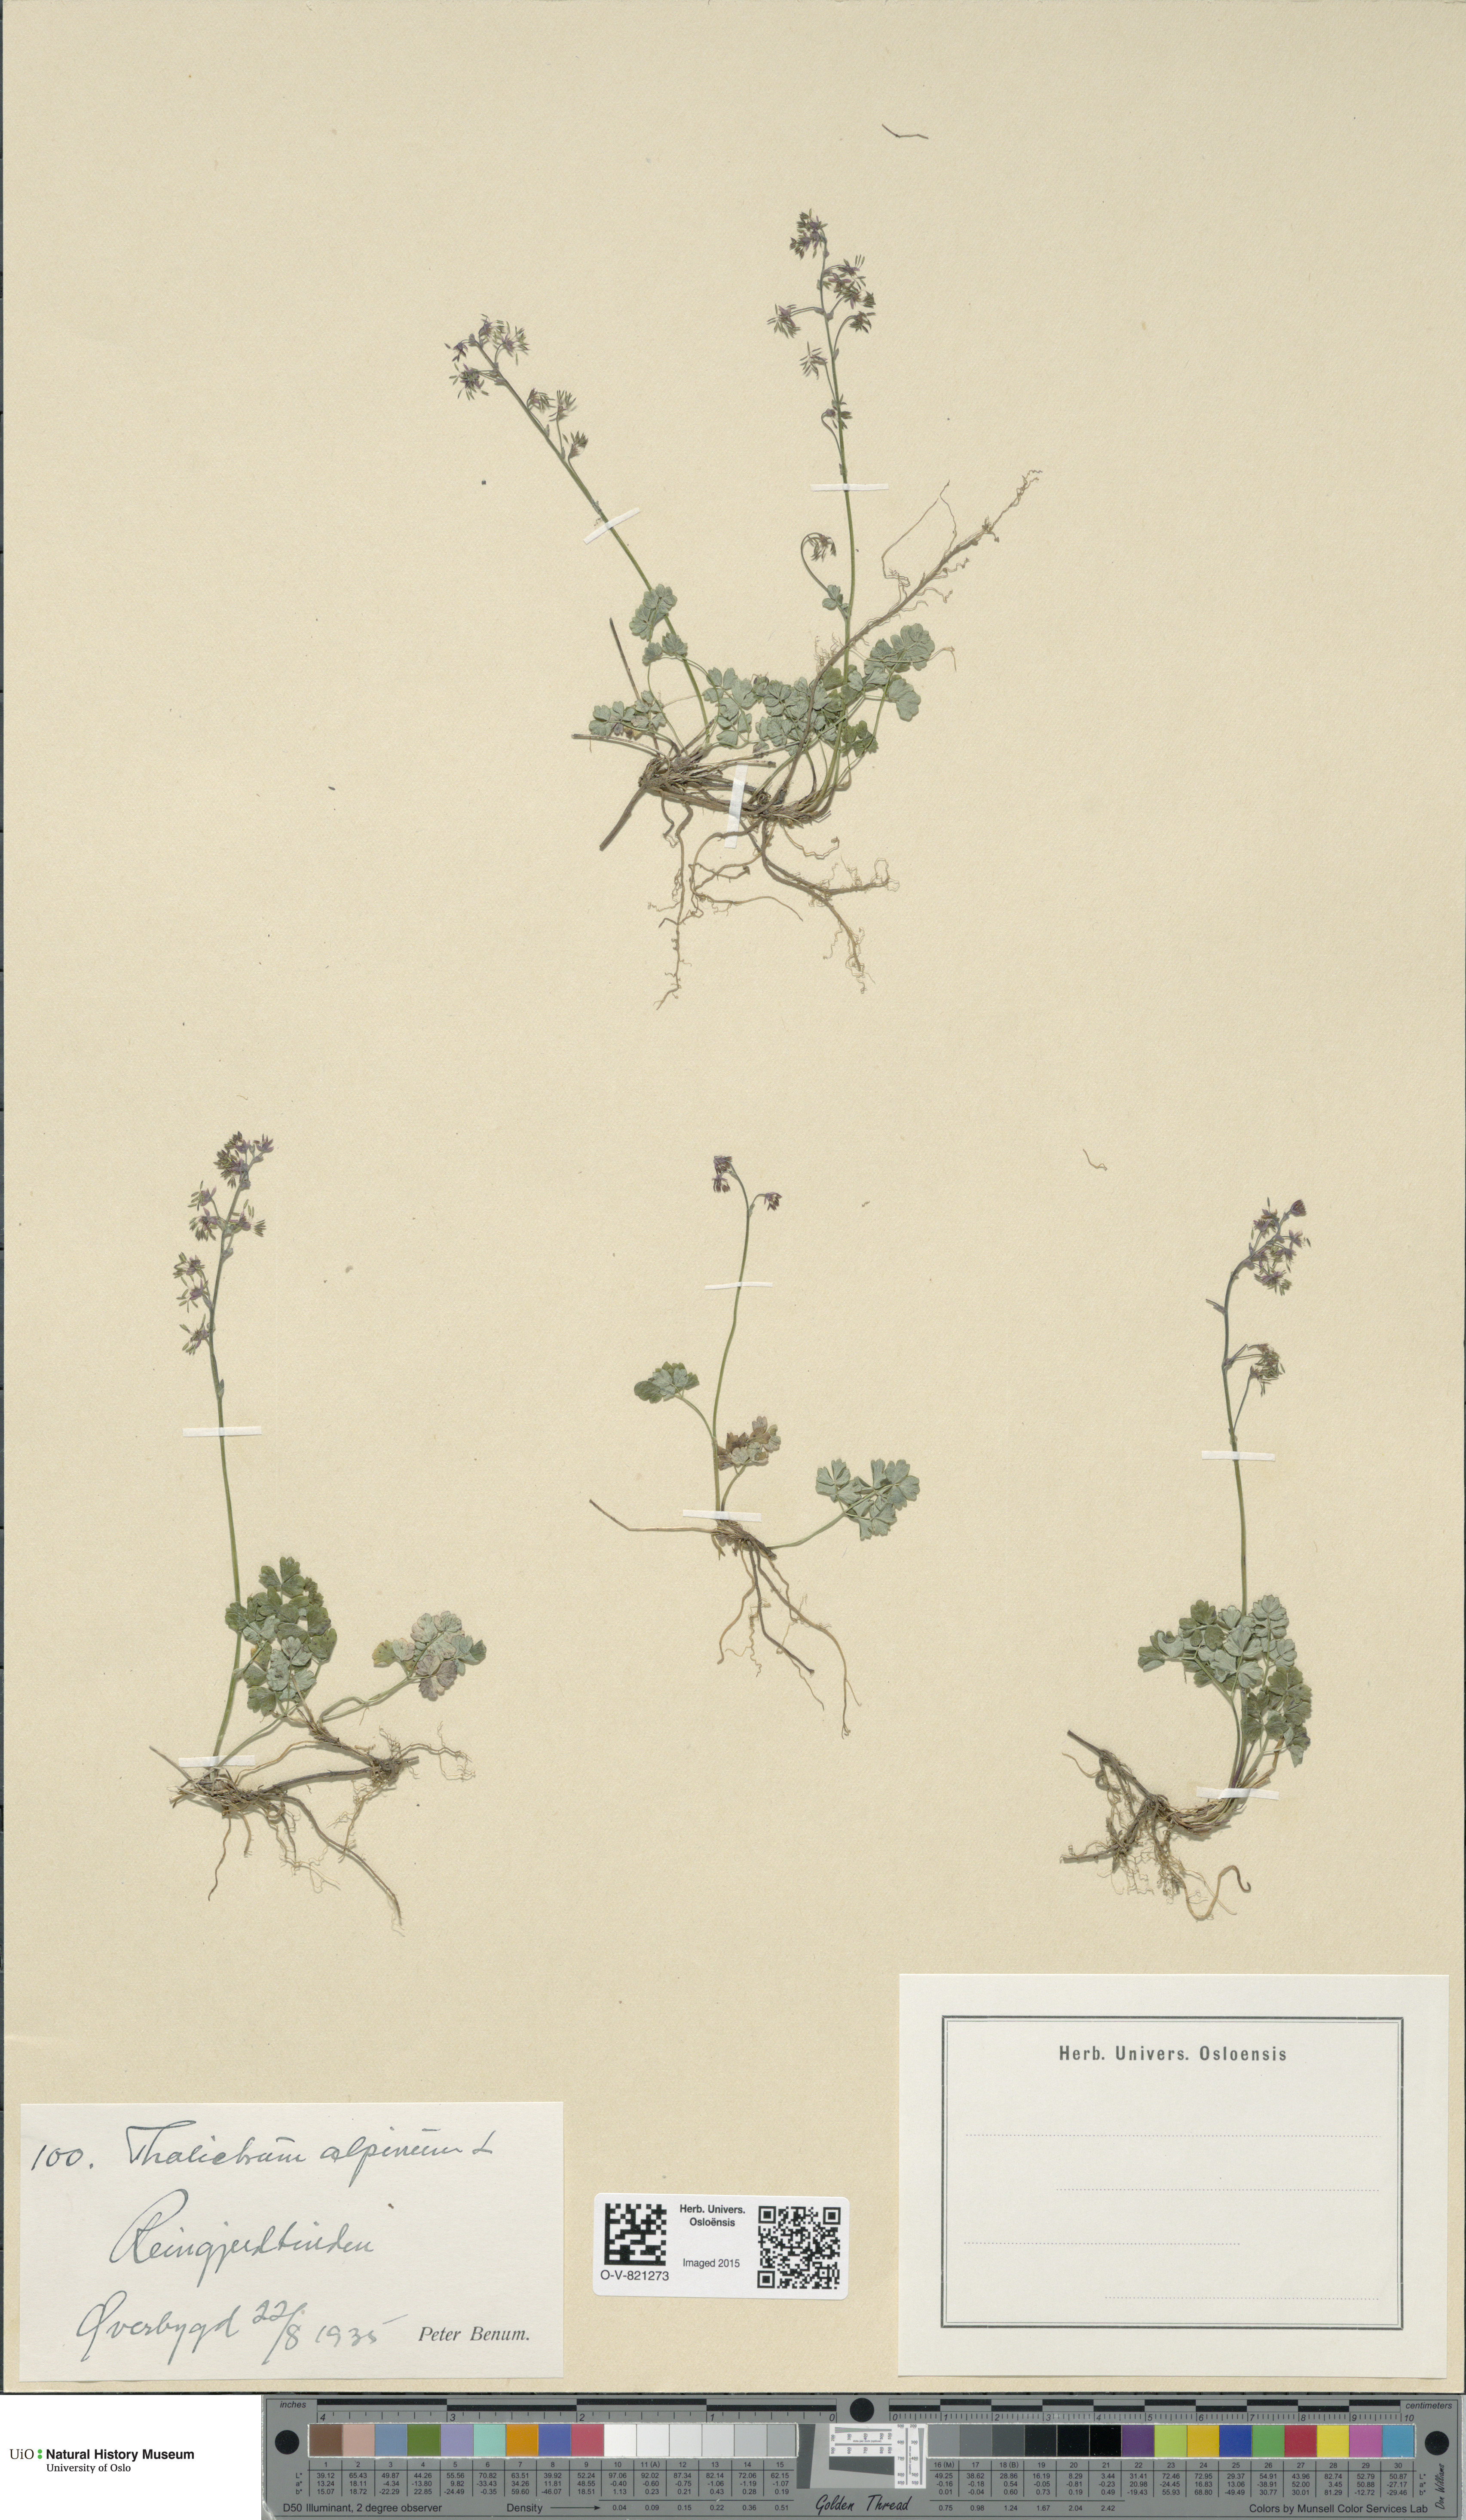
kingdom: Plantae
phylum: Tracheophyta
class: Magnoliopsida
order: Ranunculales
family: Ranunculaceae
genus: Thalictrum
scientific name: Thalictrum alpinum
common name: Alpine meadow-rue
